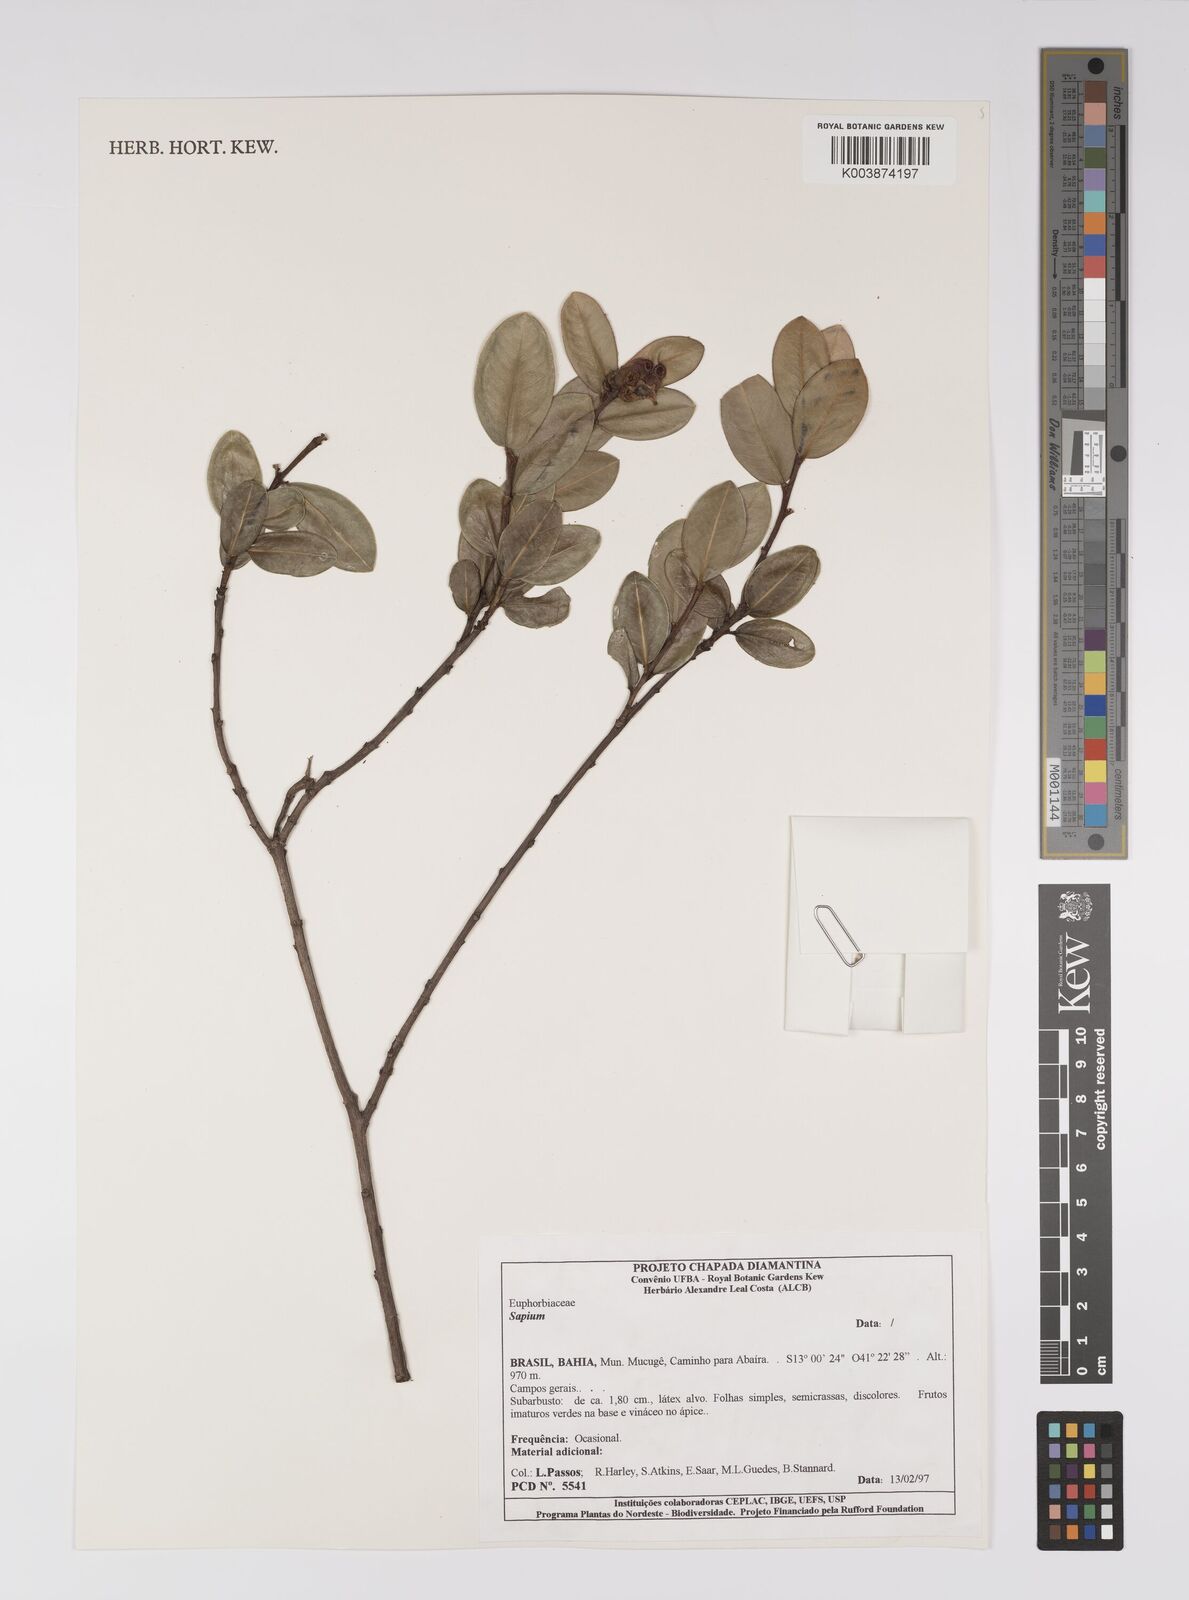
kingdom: Plantae
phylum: Tracheophyta
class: Magnoliopsida
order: Malpighiales
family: Euphorbiaceae
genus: Sapium
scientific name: Sapium
